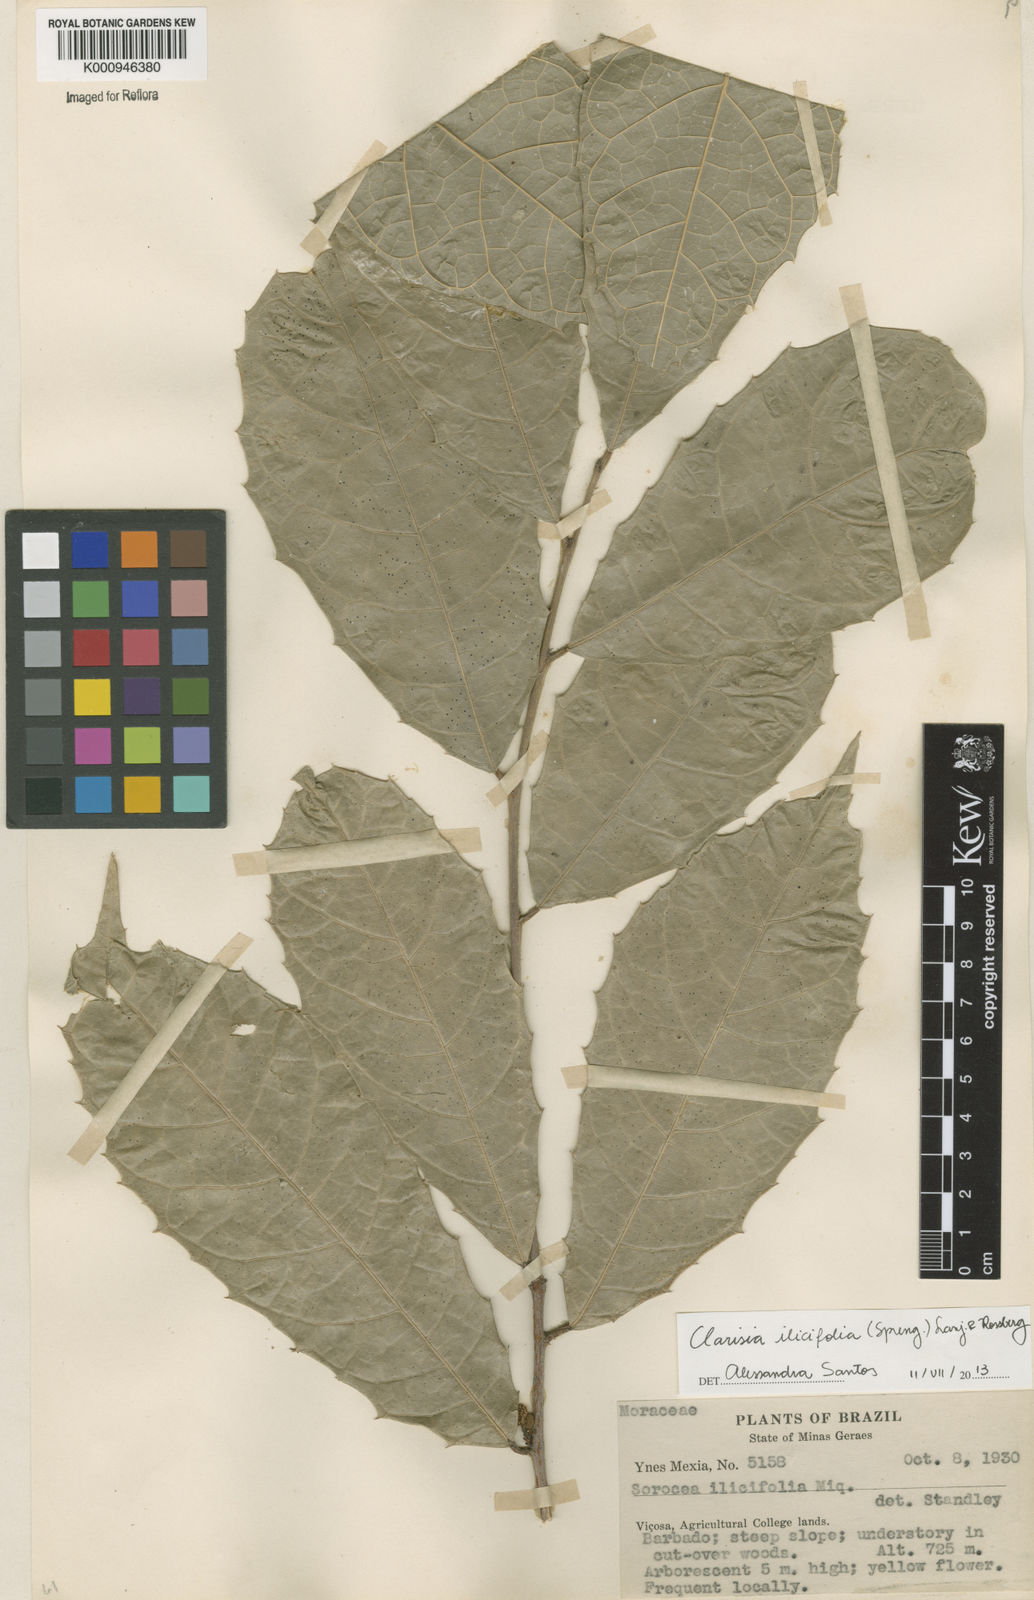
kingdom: Plantae
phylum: Tracheophyta
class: Magnoliopsida
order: Rosales
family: Moraceae
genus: Clarisia
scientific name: Clarisia ilicifolia
